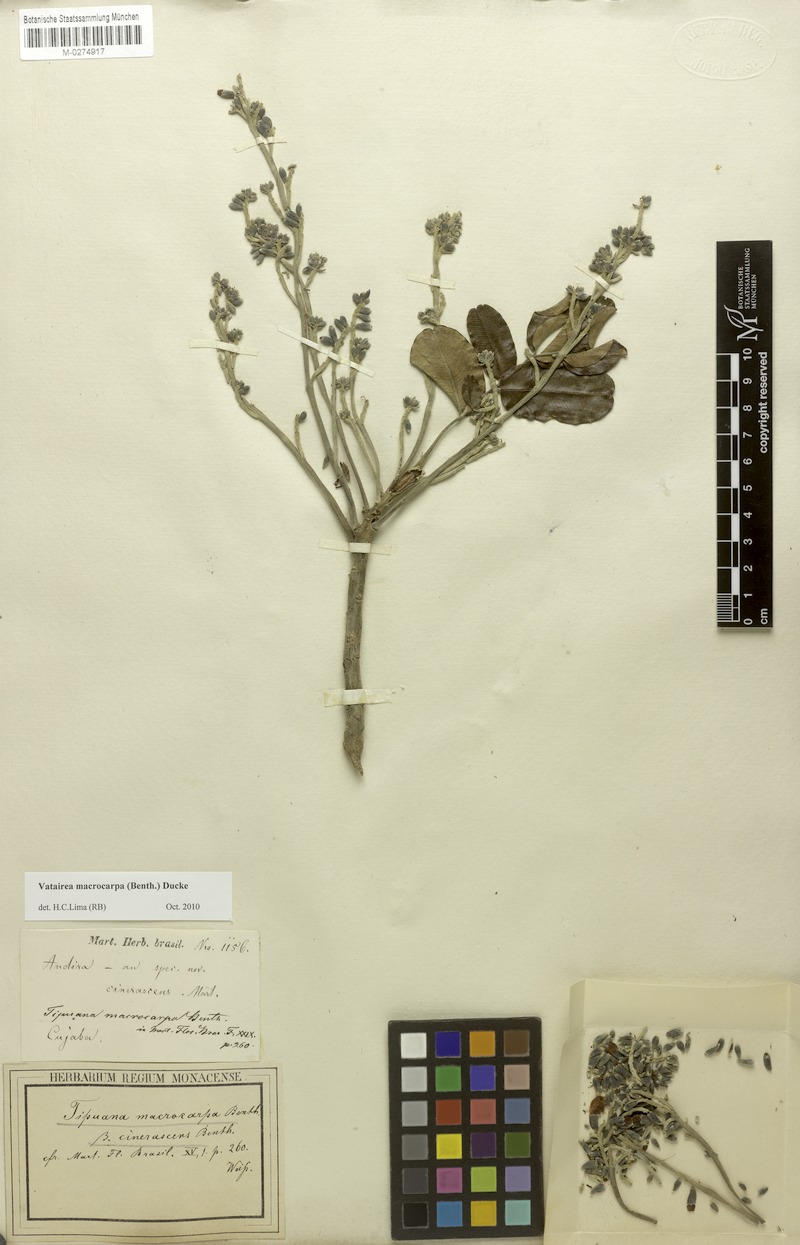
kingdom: Plantae
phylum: Tracheophyta
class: Magnoliopsida
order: Fabales
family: Fabaceae
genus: Vatairea
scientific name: Vatairea macrocarpa
